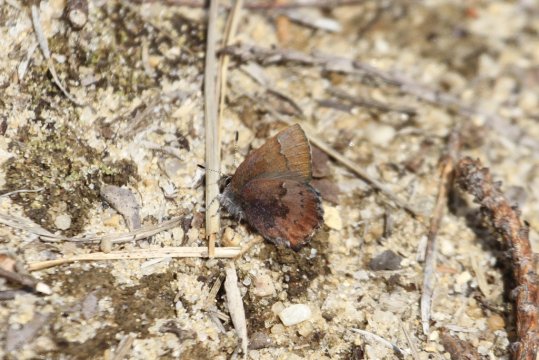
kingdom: Animalia
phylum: Arthropoda
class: Insecta
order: Lepidoptera
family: Lycaenidae
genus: Incisalia
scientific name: Incisalia irioides
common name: Brown Elfin
